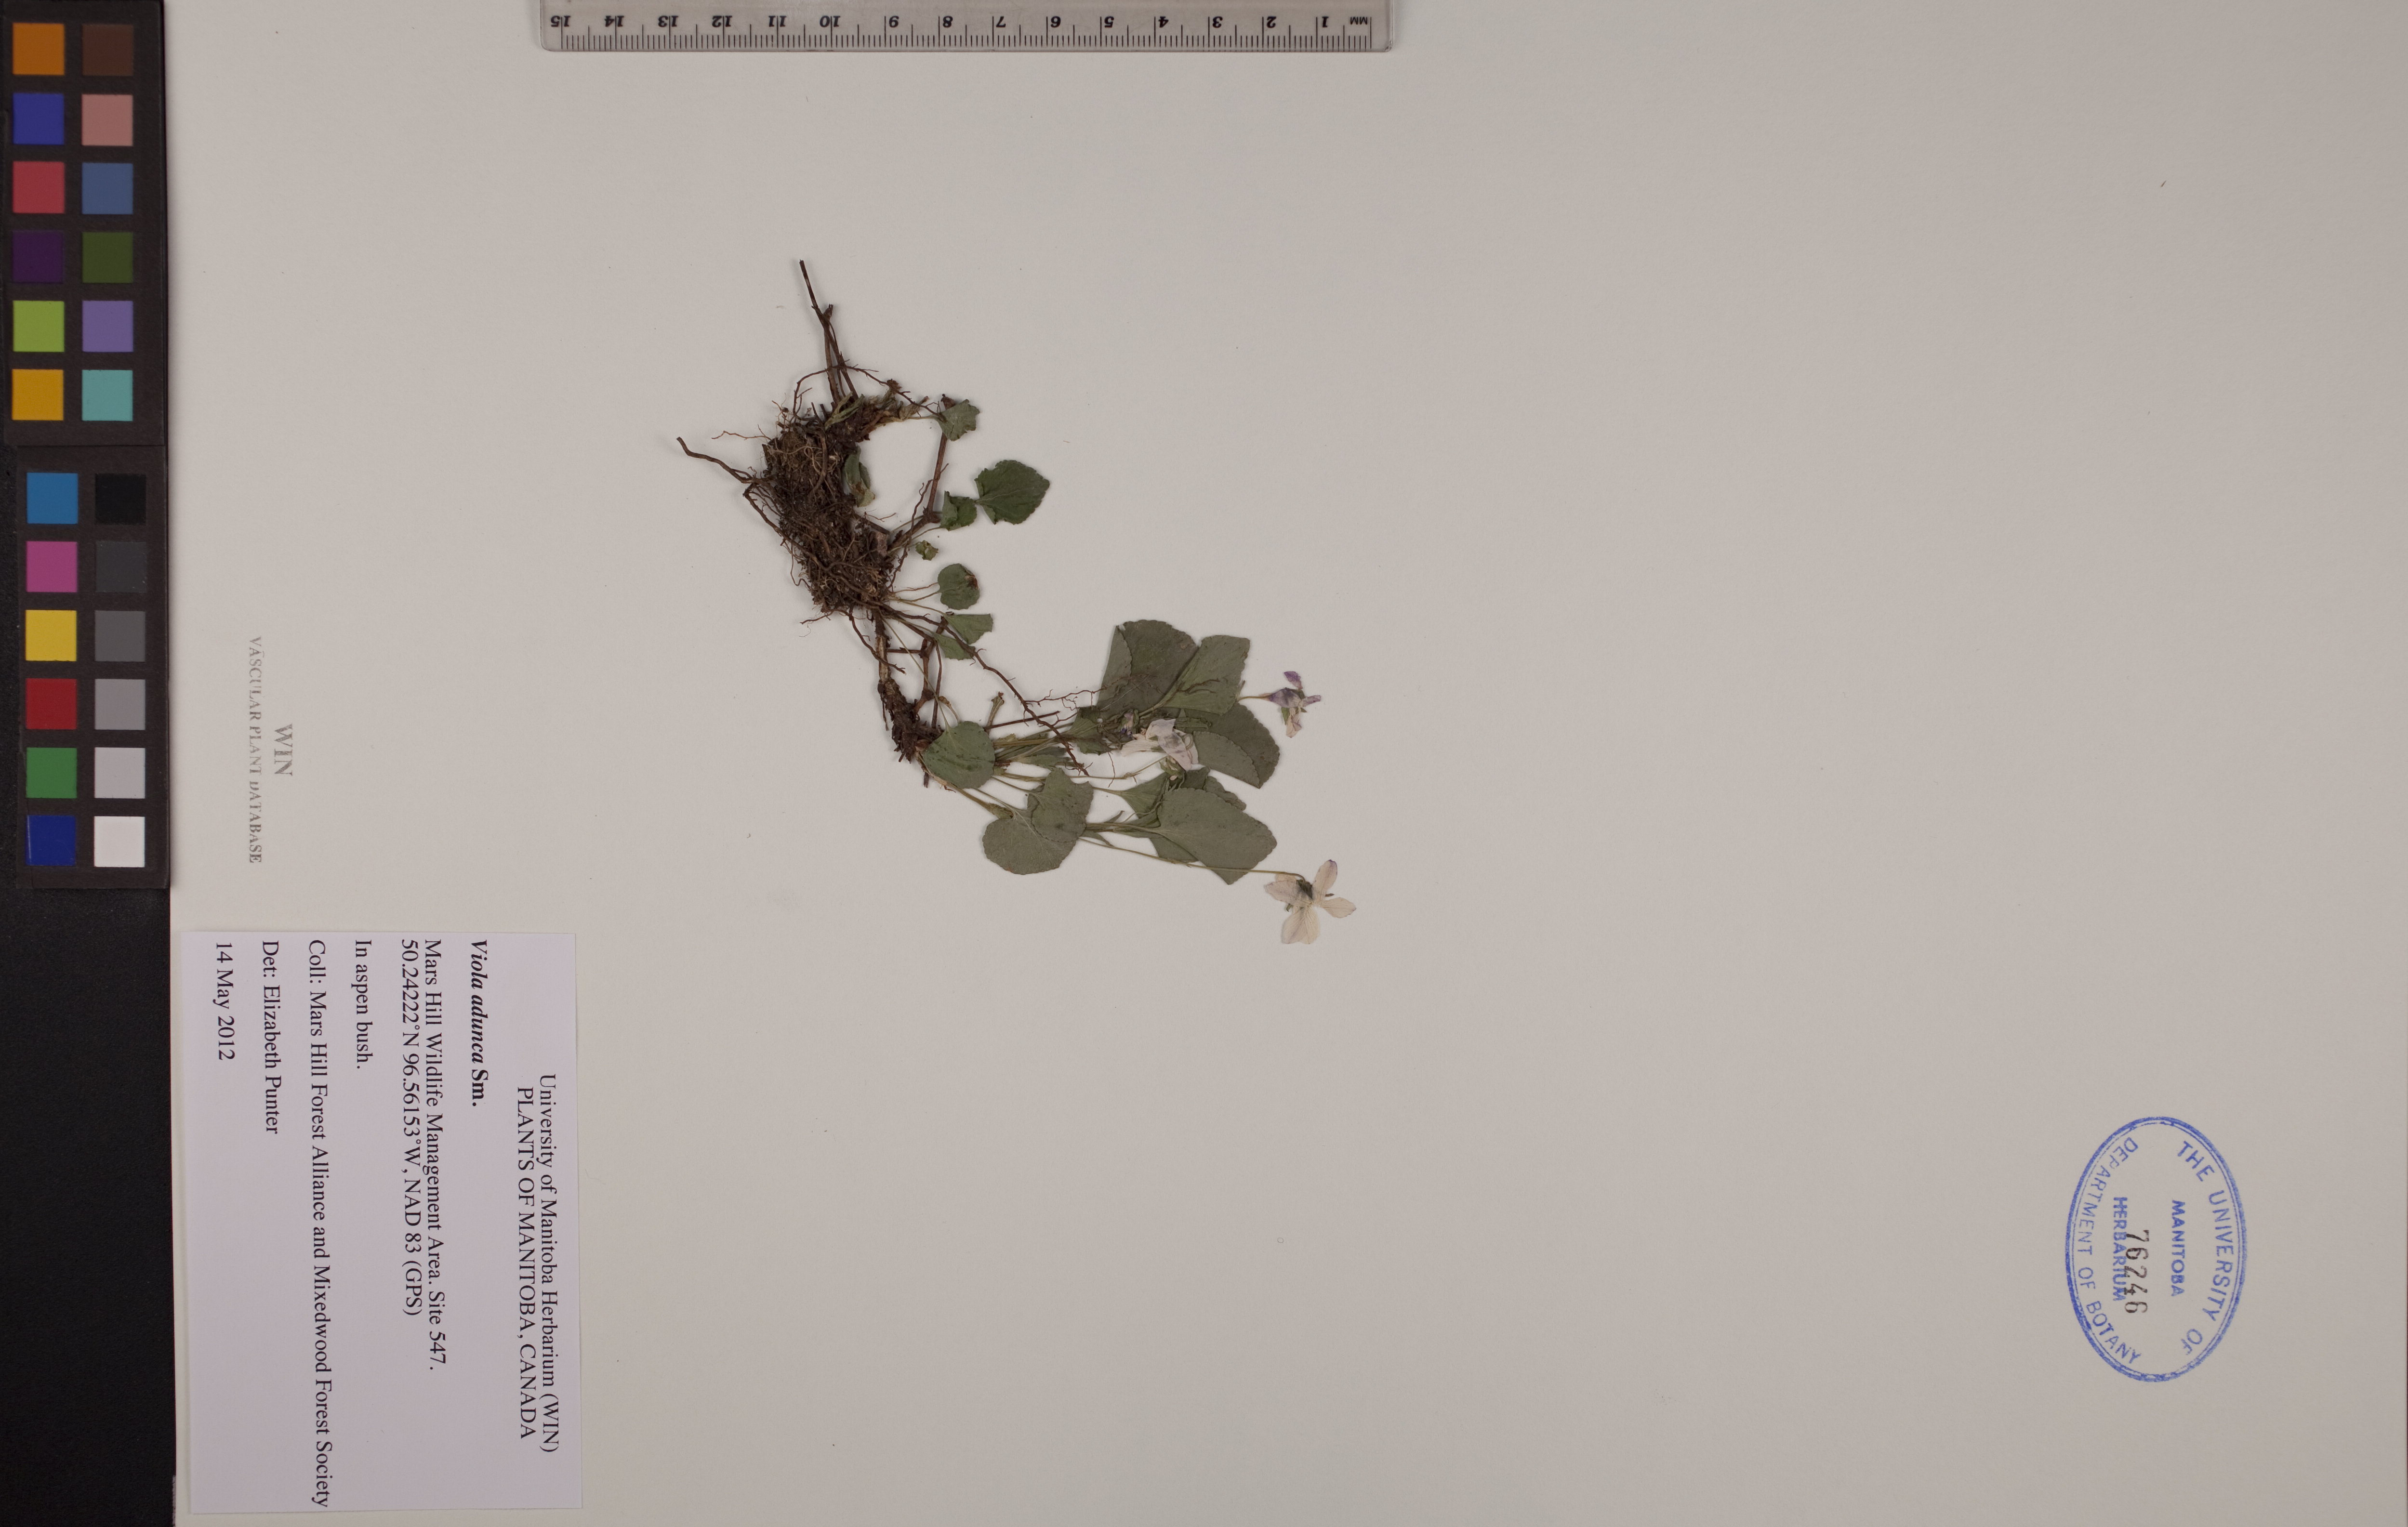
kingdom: Plantae
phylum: Tracheophyta
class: Magnoliopsida
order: Malpighiales
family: Violaceae
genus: Viola
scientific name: Viola adunca
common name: Sand violet
